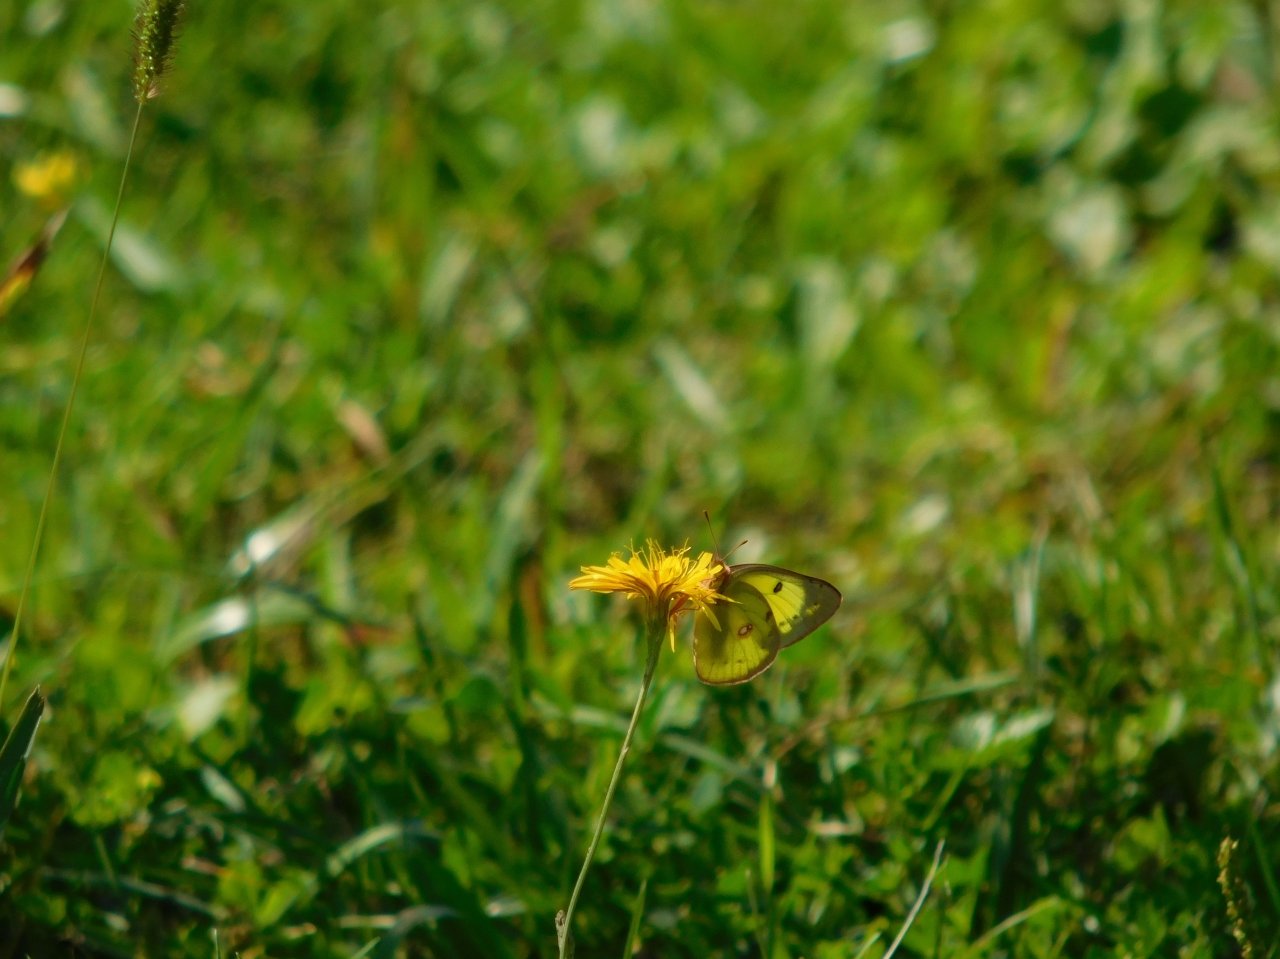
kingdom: Animalia
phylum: Arthropoda
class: Insecta
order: Lepidoptera
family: Pieridae
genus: Colias
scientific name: Colias philodice
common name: Clouded Sulphur
